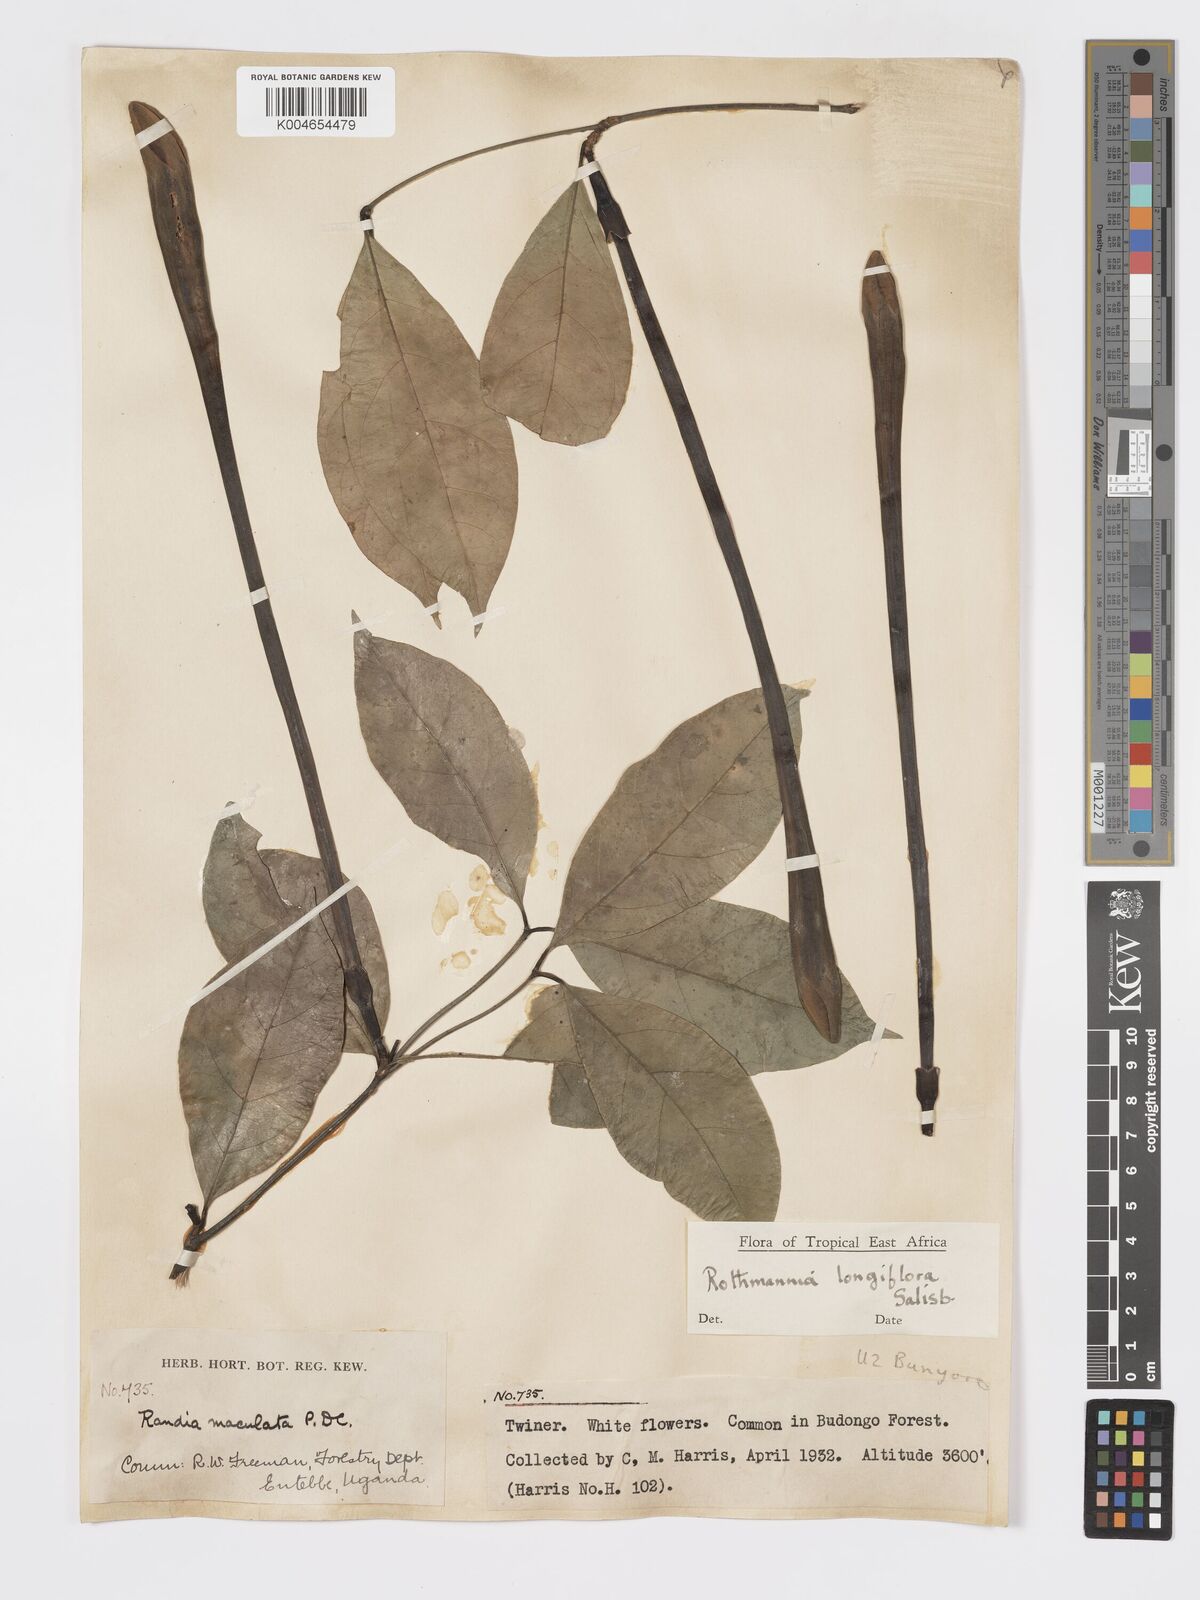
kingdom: Plantae
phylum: Tracheophyta
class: Magnoliopsida
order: Gentianales
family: Rubiaceae
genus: Rothmannia
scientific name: Rothmannia longiflora
